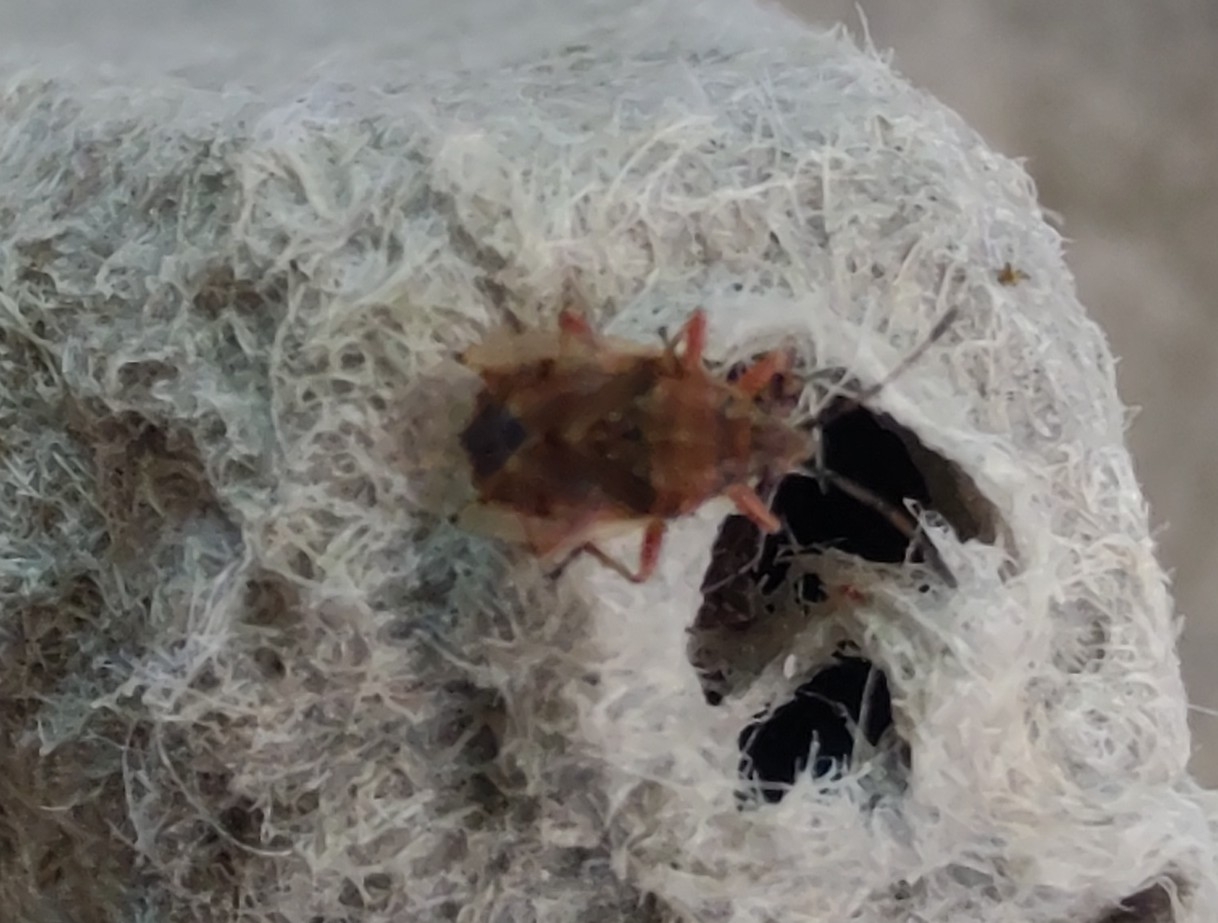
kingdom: Animalia
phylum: Arthropoda
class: Insecta
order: Hemiptera
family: Lygaeidae
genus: Kleidocerys
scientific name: Kleidocerys resedae
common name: Birkefrøtæge
